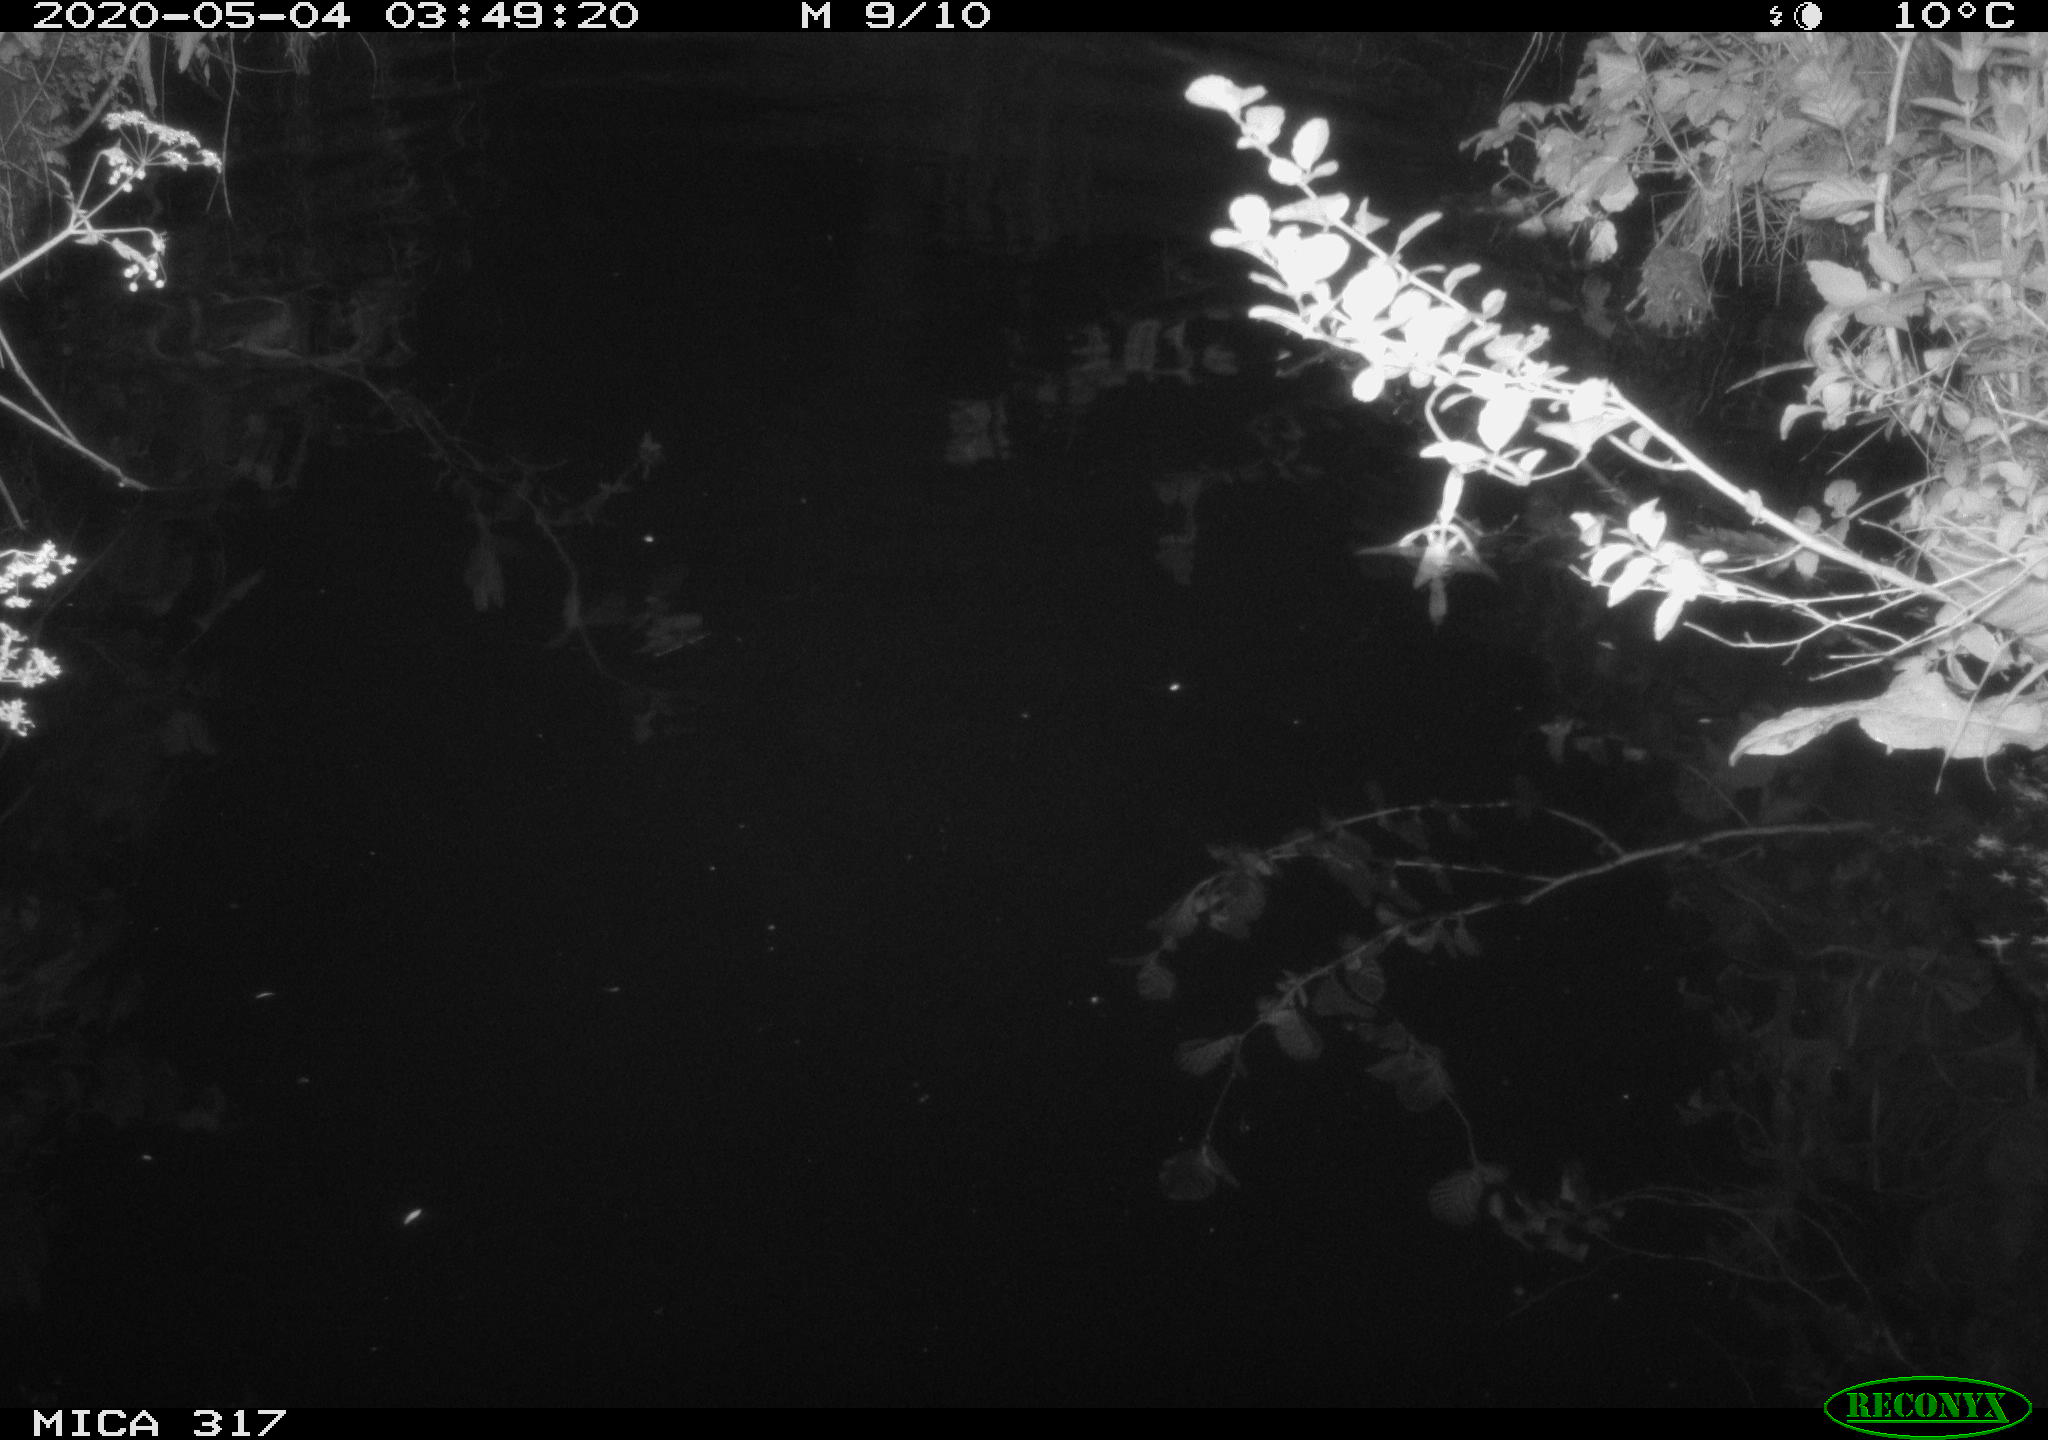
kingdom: Animalia
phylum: Chordata
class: Aves
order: Anseriformes
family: Anatidae
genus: Anas
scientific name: Anas platyrhynchos
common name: Mallard
